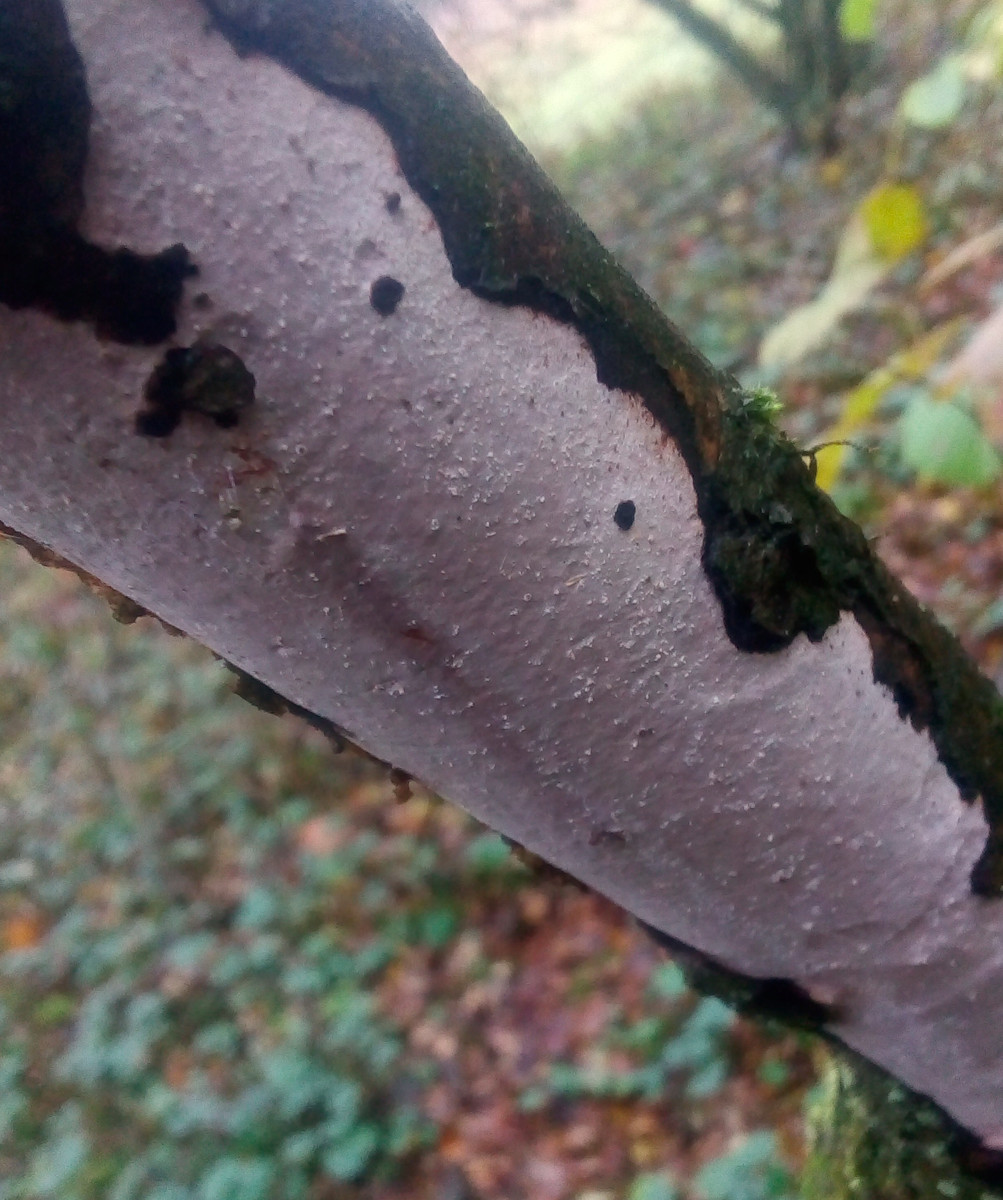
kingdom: Fungi
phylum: Basidiomycota
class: Agaricomycetes
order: Corticiales
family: Vuilleminiaceae
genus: Vuilleminia
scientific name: Vuilleminia cystidiata
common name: tjørne-barksprænger
